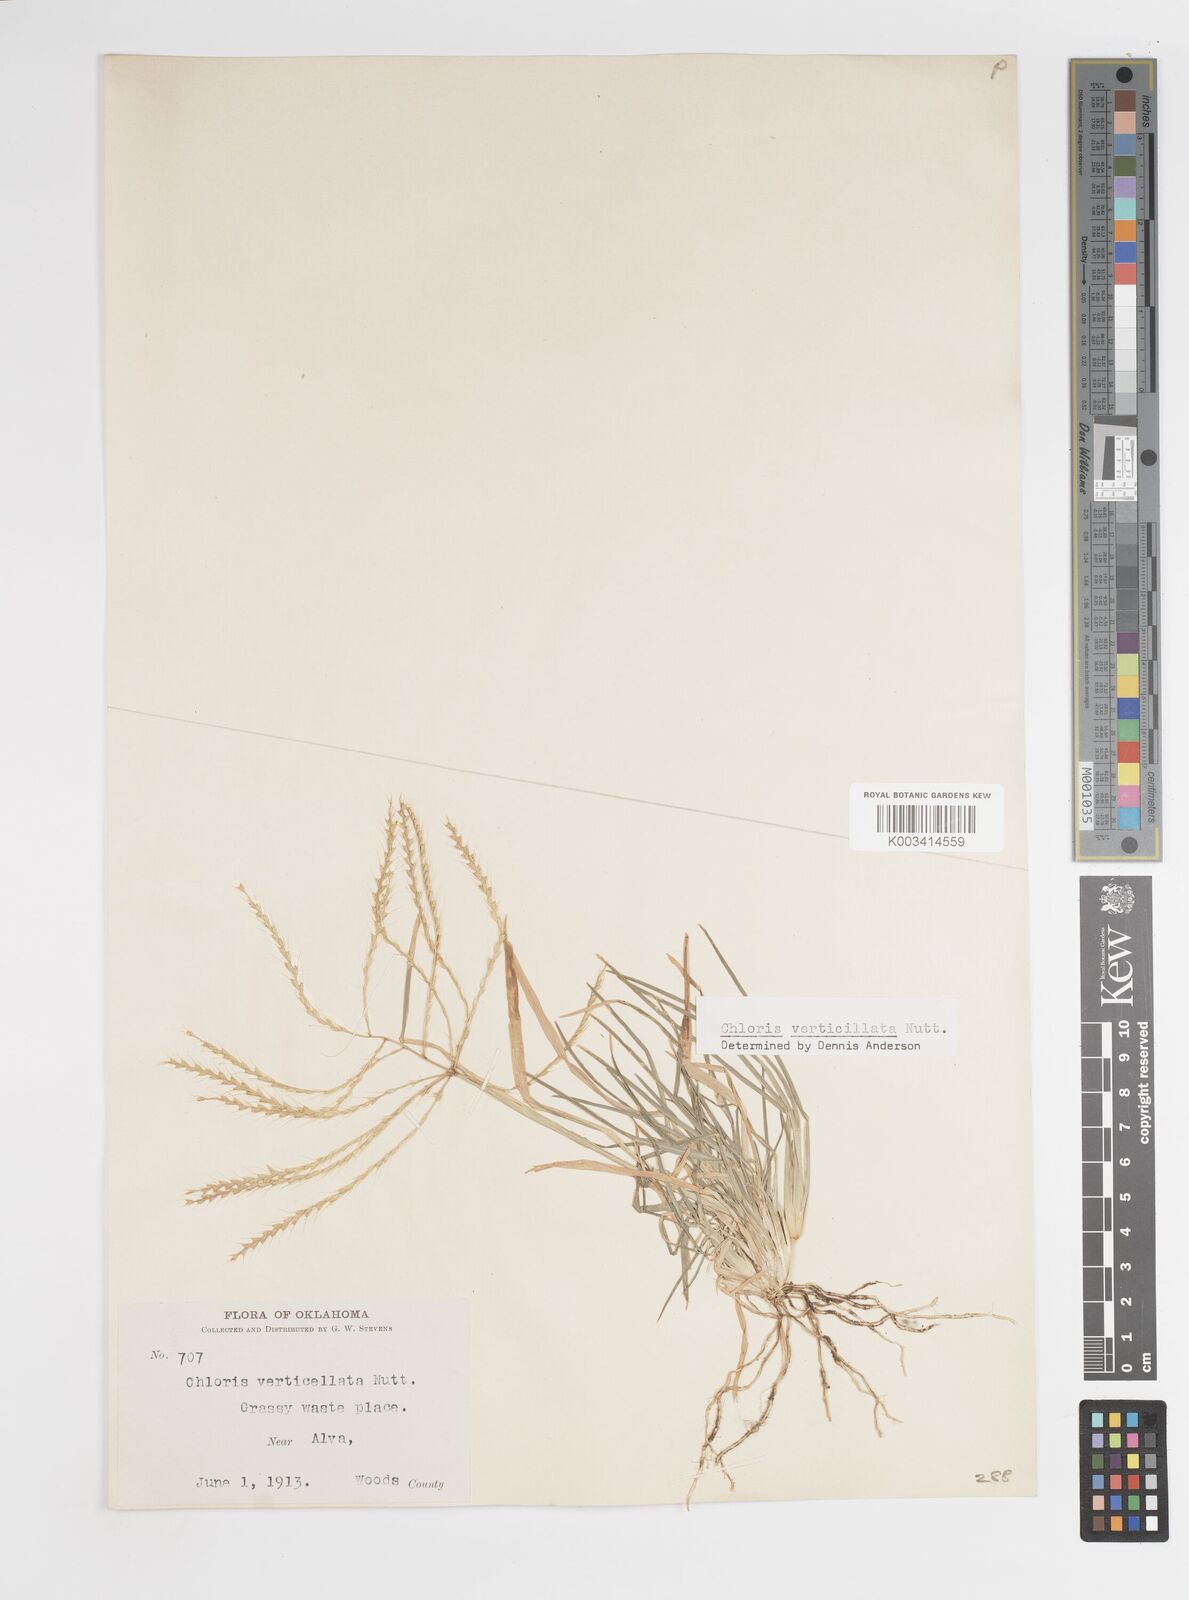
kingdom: Plantae
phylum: Tracheophyta
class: Liliopsida
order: Poales
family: Poaceae
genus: Chloris
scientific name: Chloris verticillata
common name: Tumble windmill grass
